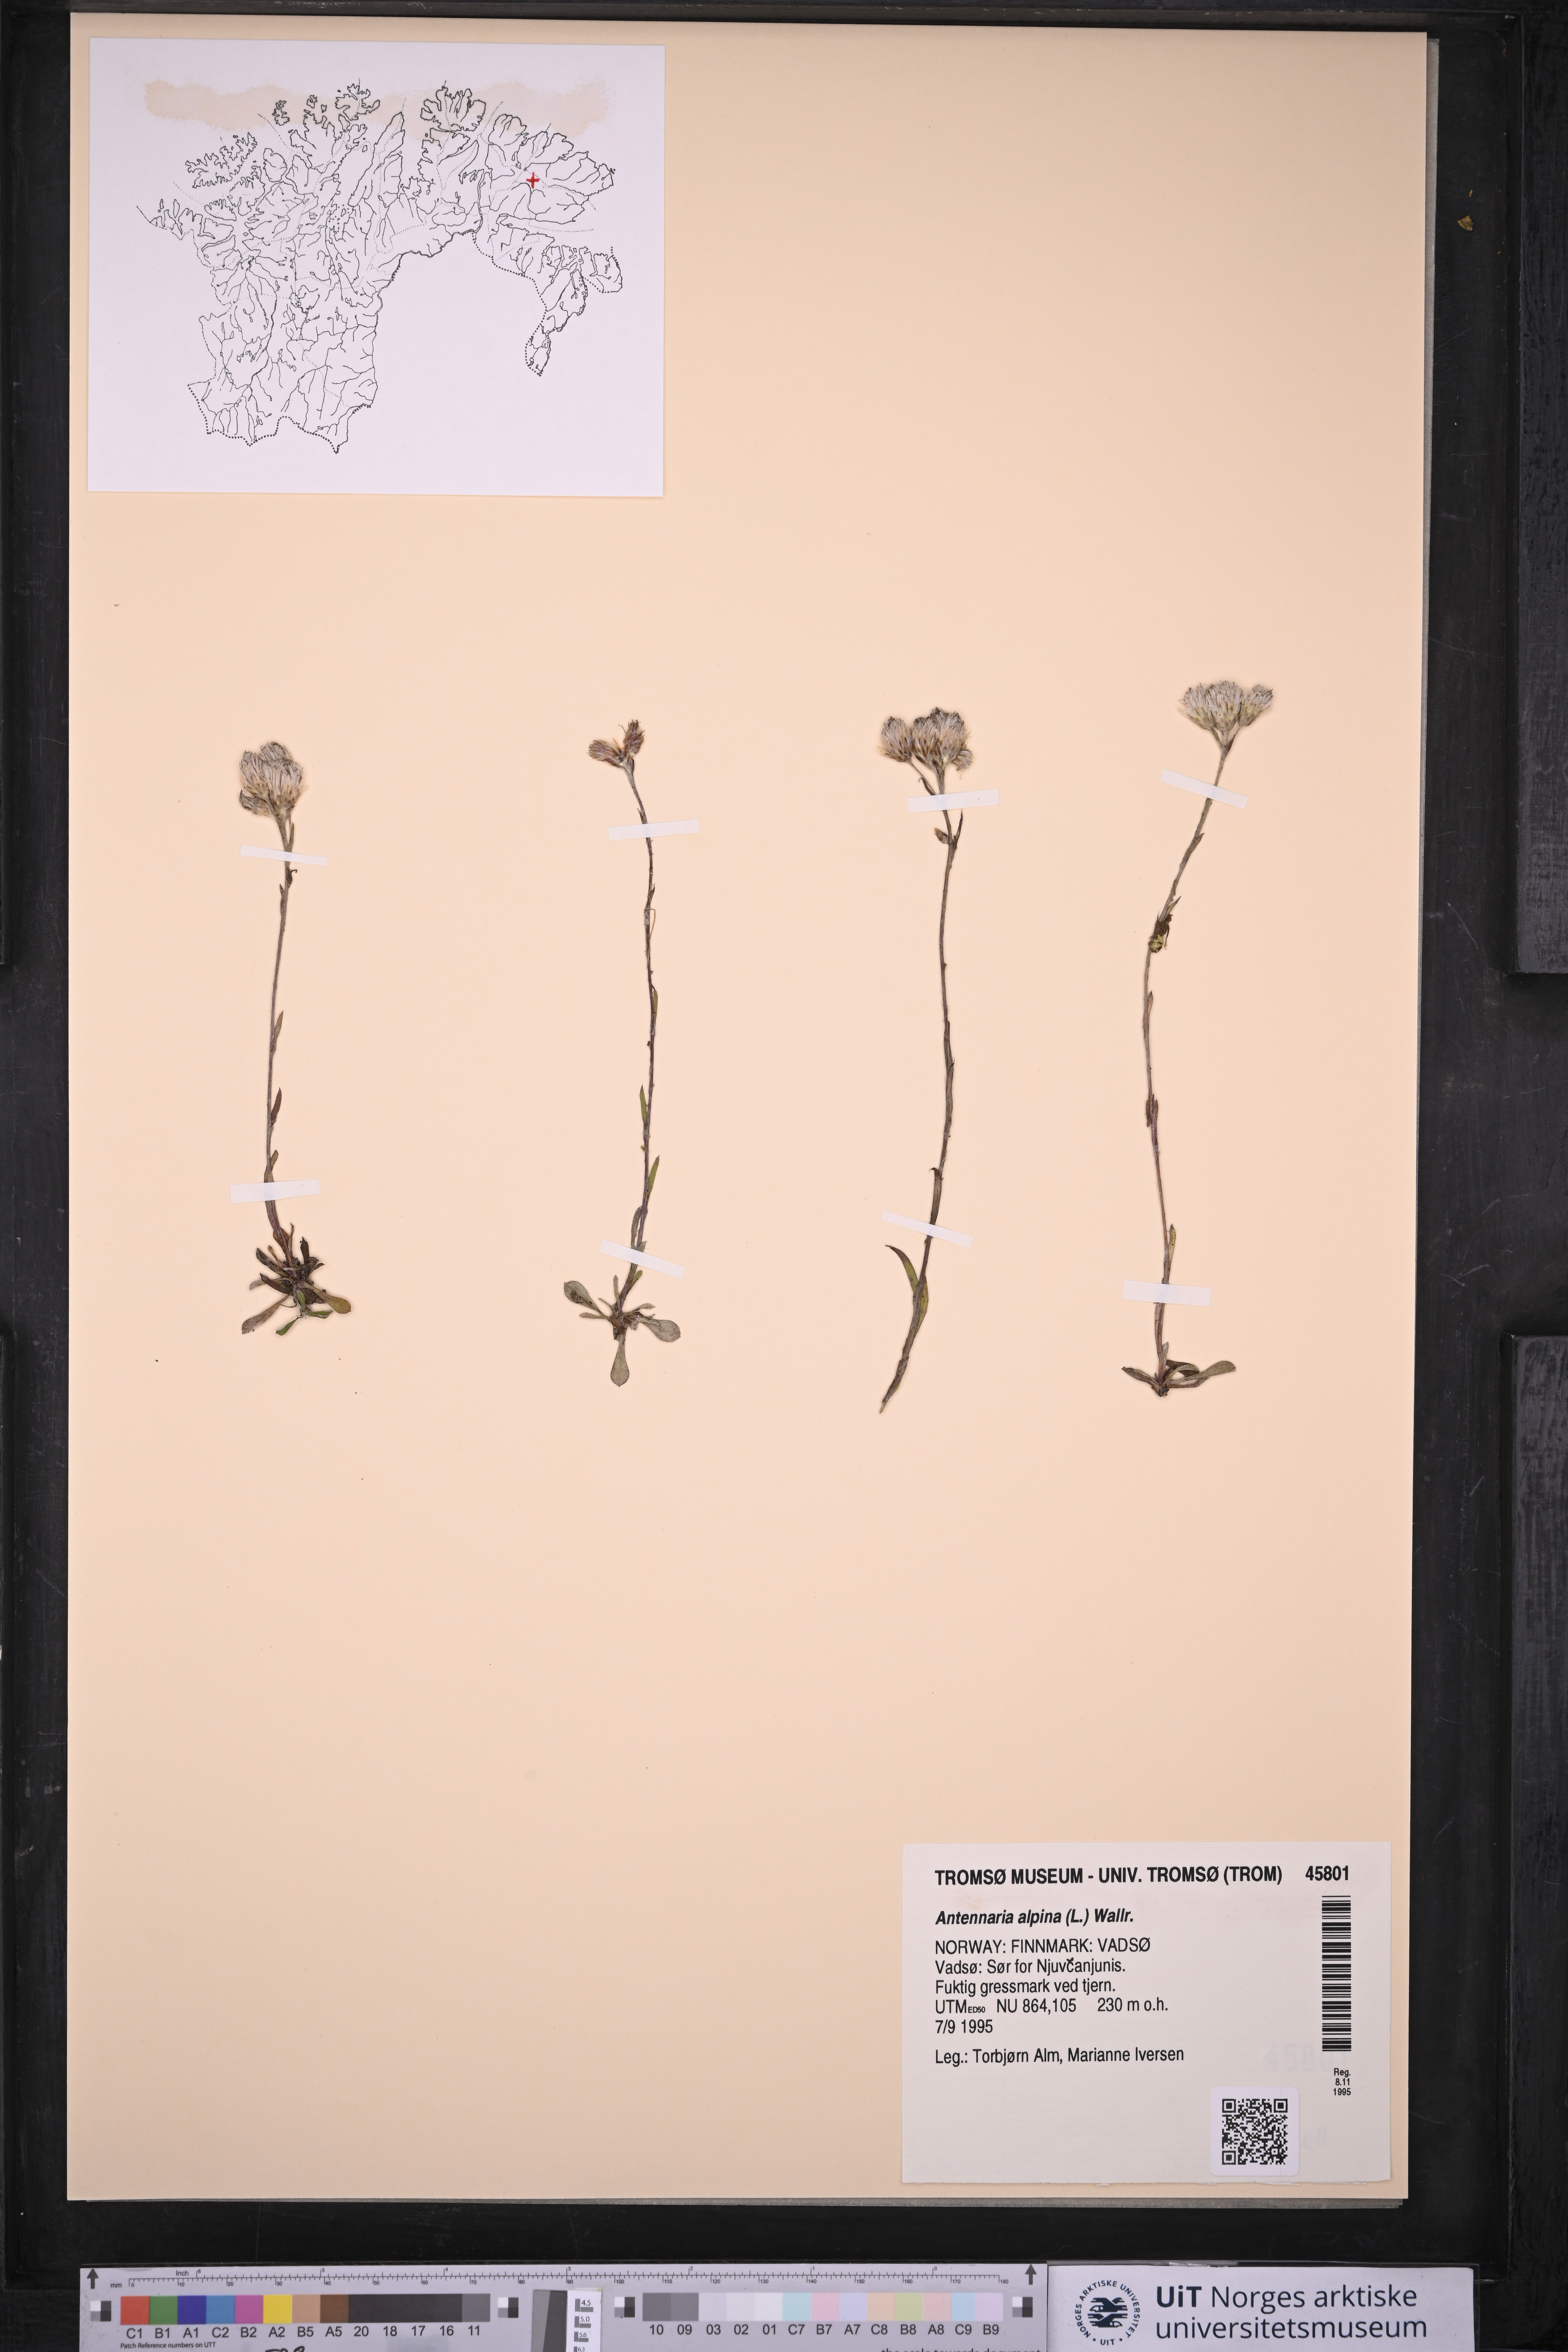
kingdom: Plantae
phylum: Tracheophyta
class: Magnoliopsida
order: Asterales
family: Asteraceae
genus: Antennaria
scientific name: Antennaria alpina
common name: Alpine pussytoes
